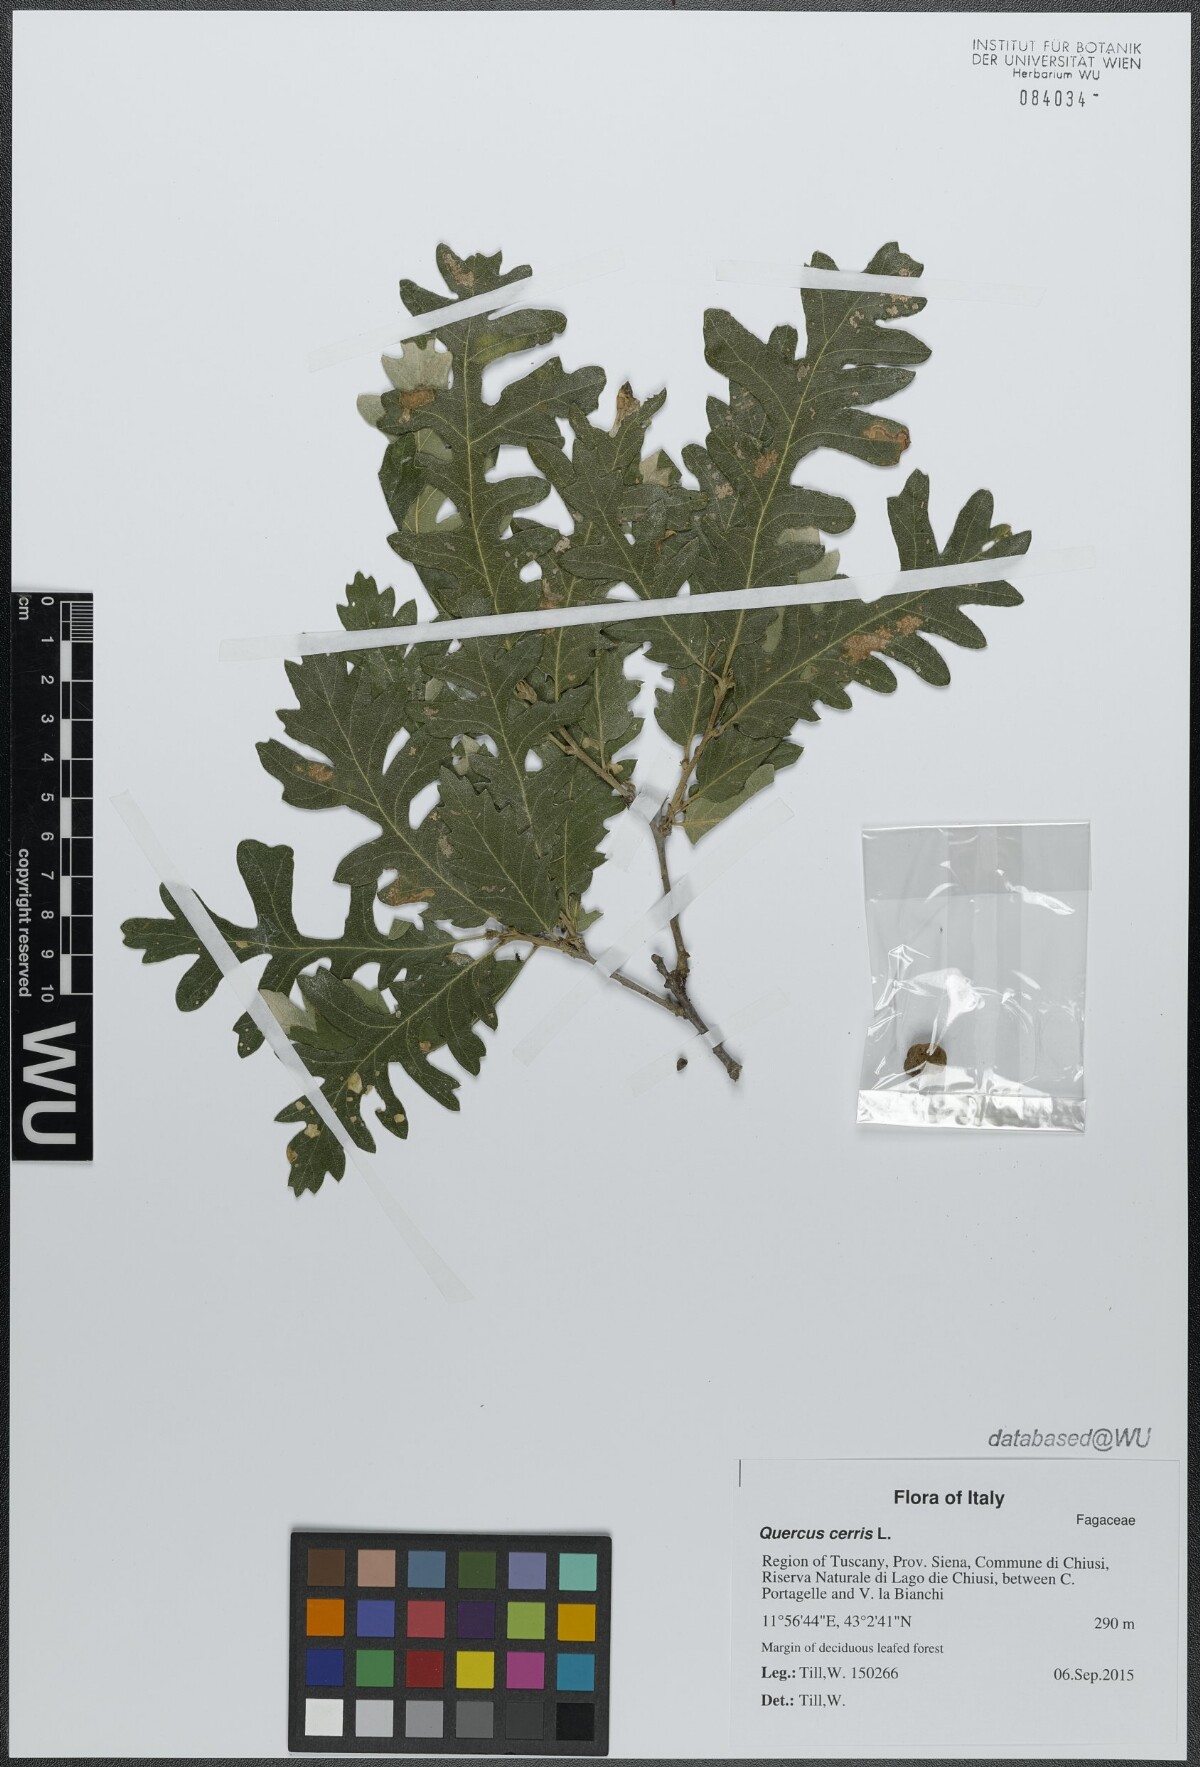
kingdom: Plantae
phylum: Tracheophyta
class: Magnoliopsida
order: Fagales
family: Fagaceae
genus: Quercus
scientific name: Quercus cerris
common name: Turkey oak
